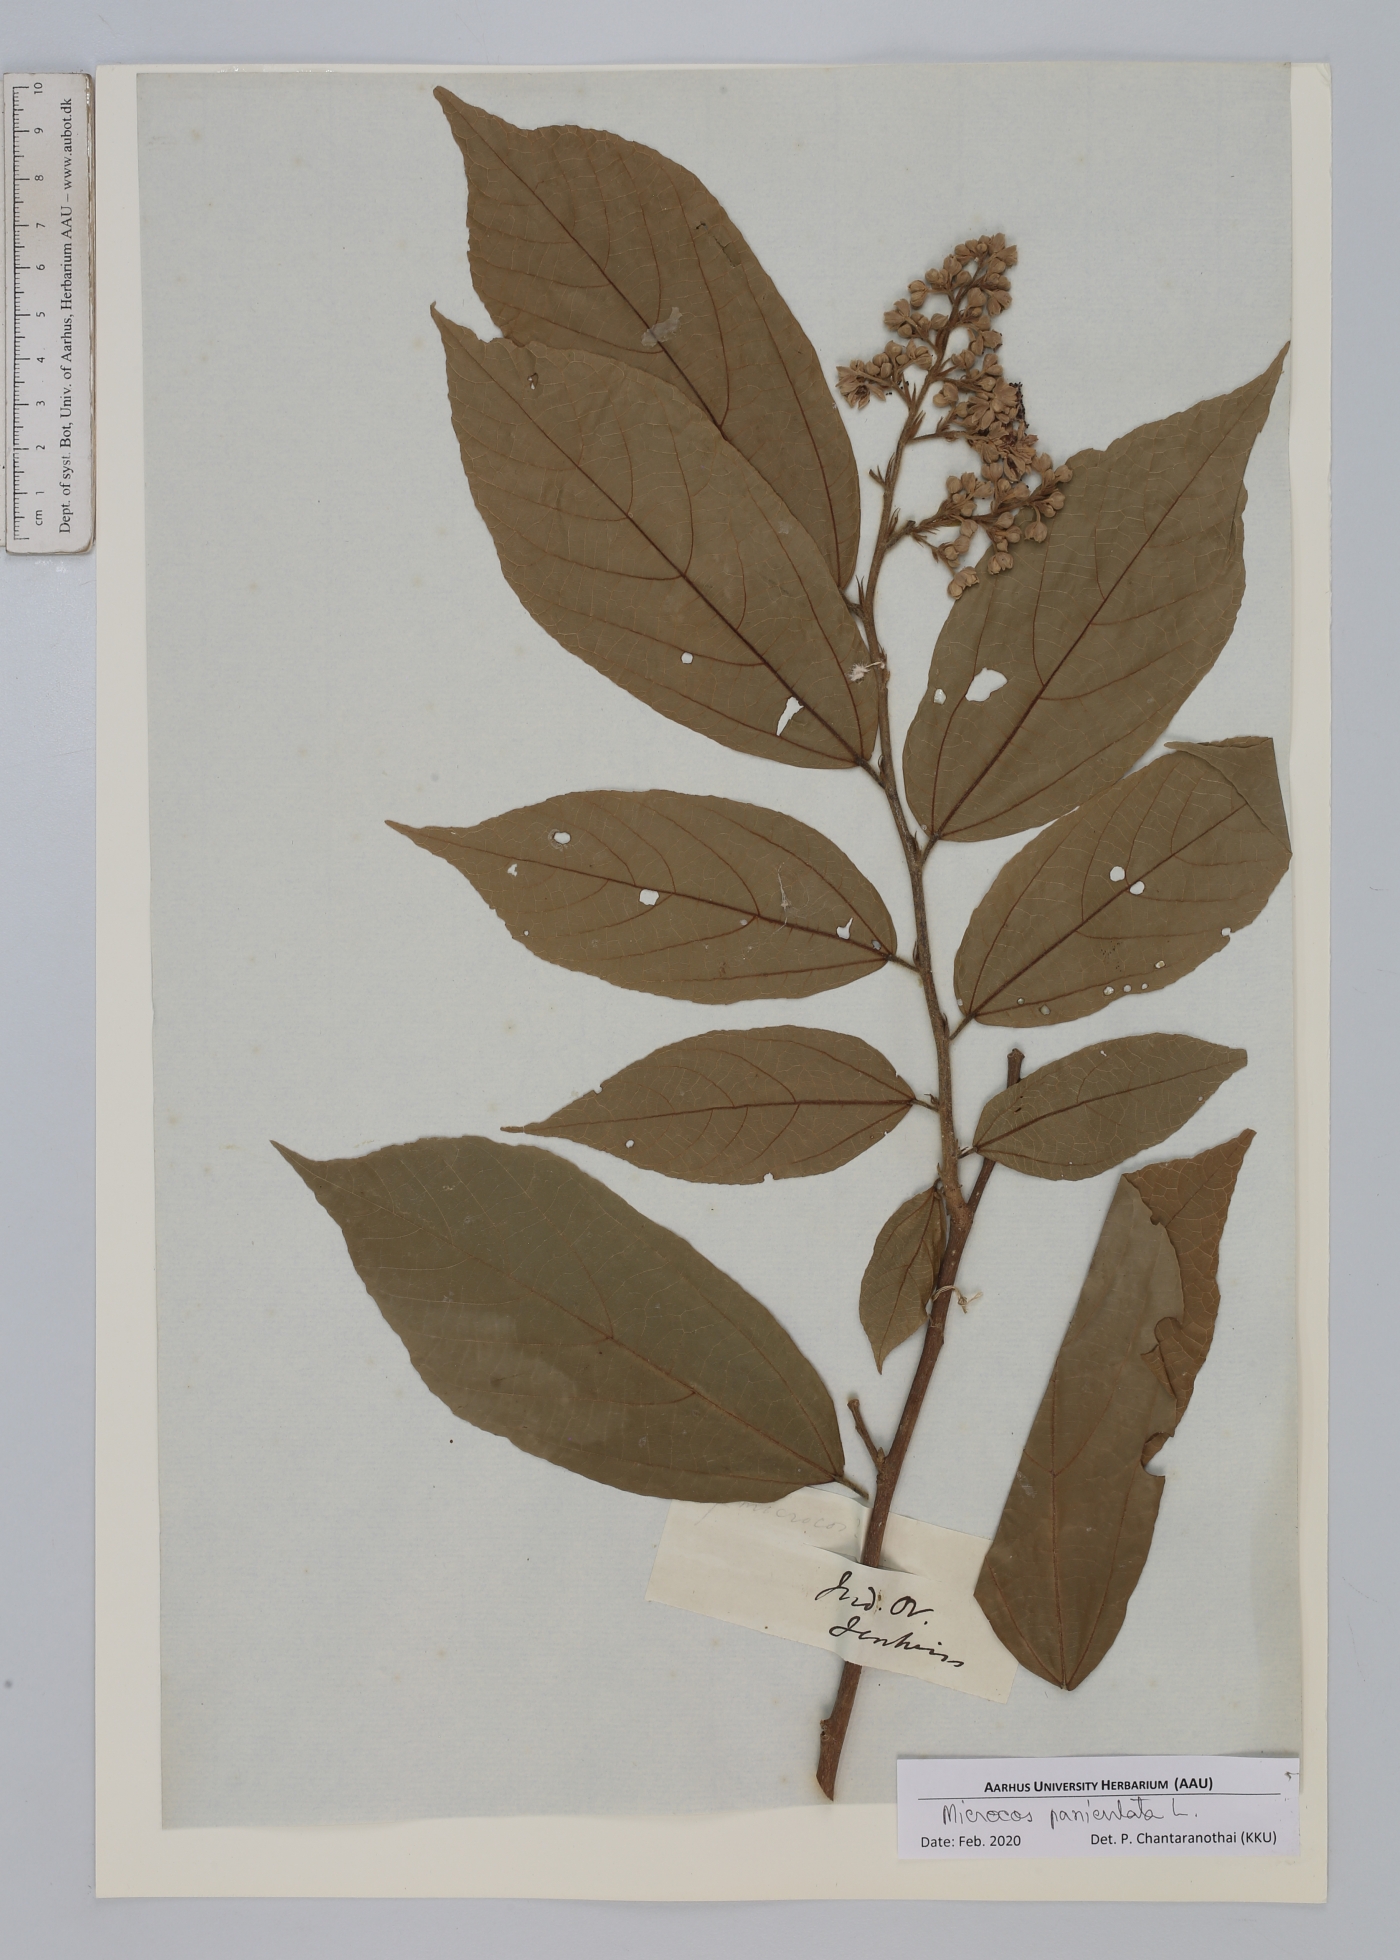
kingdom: Plantae
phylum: Tracheophyta
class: Magnoliopsida
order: Malvales
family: Malvaceae
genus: Microcos
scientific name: Microcos paniculata
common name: Microcos
